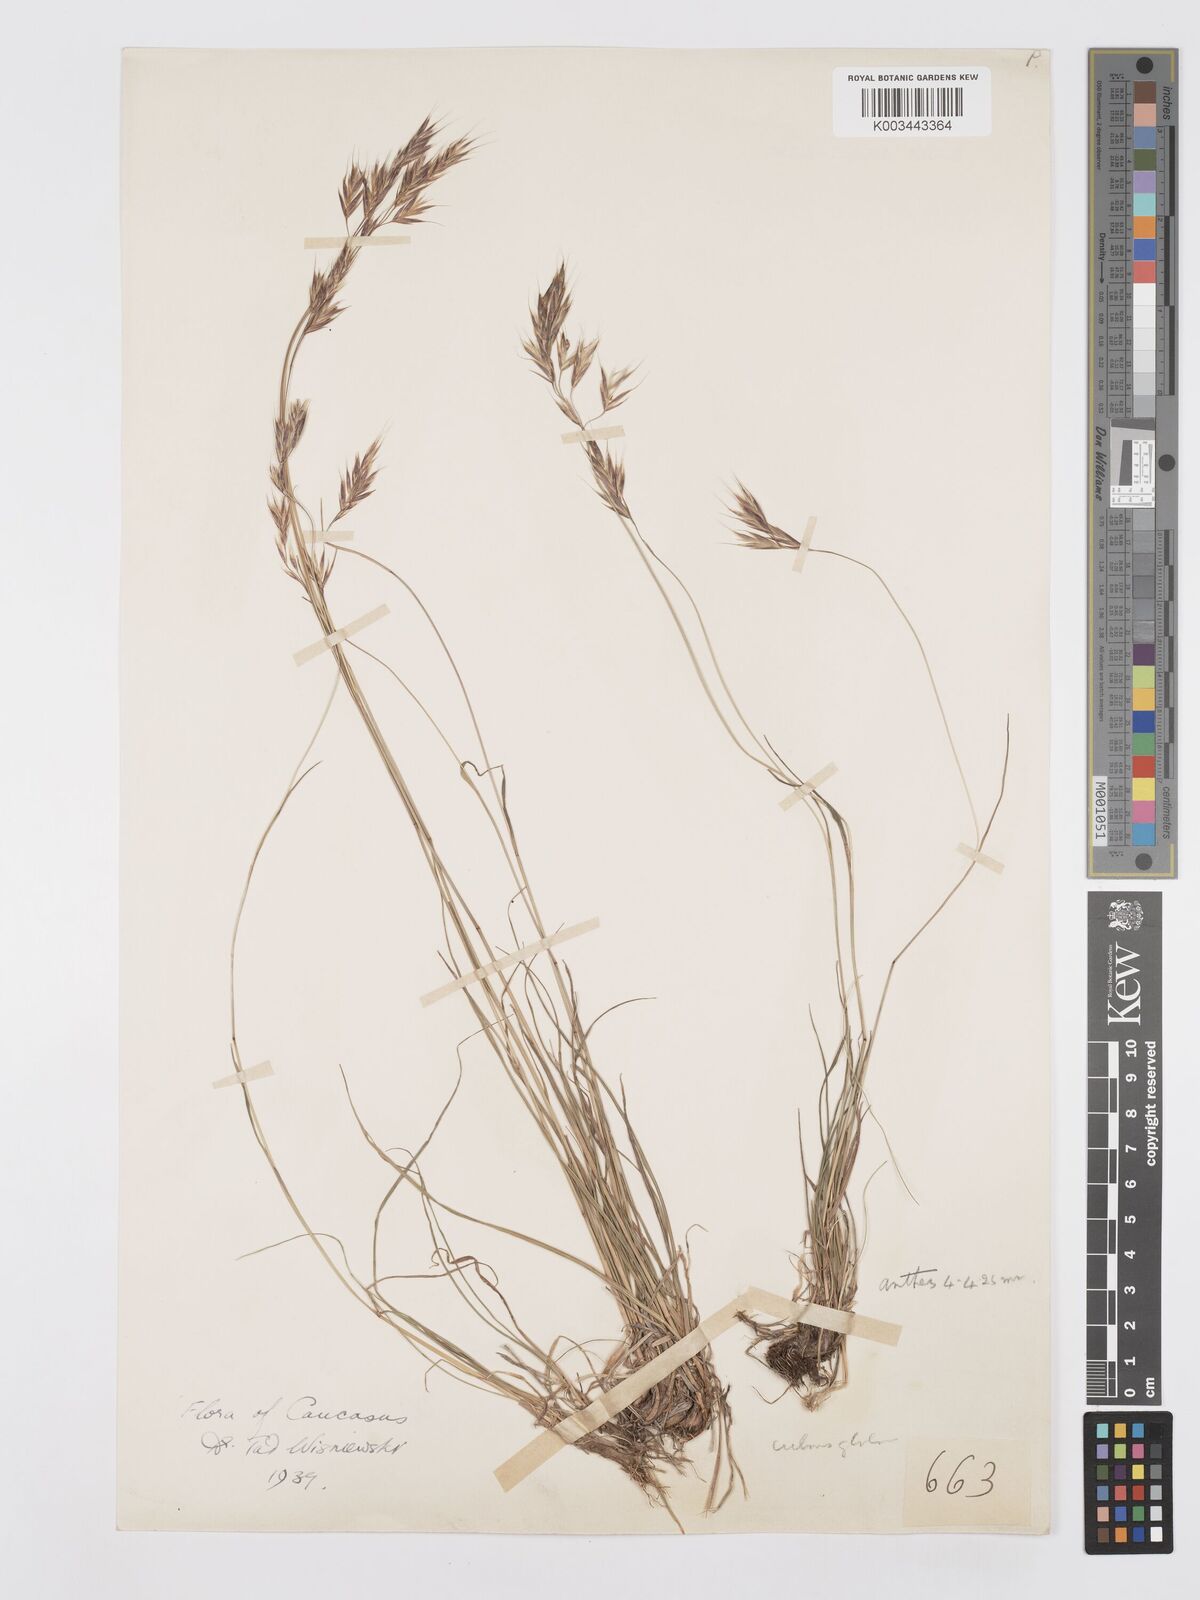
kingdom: Plantae
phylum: Tracheophyta
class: Liliopsida
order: Poales
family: Poaceae
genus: Bromus
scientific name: Bromus variegatus
